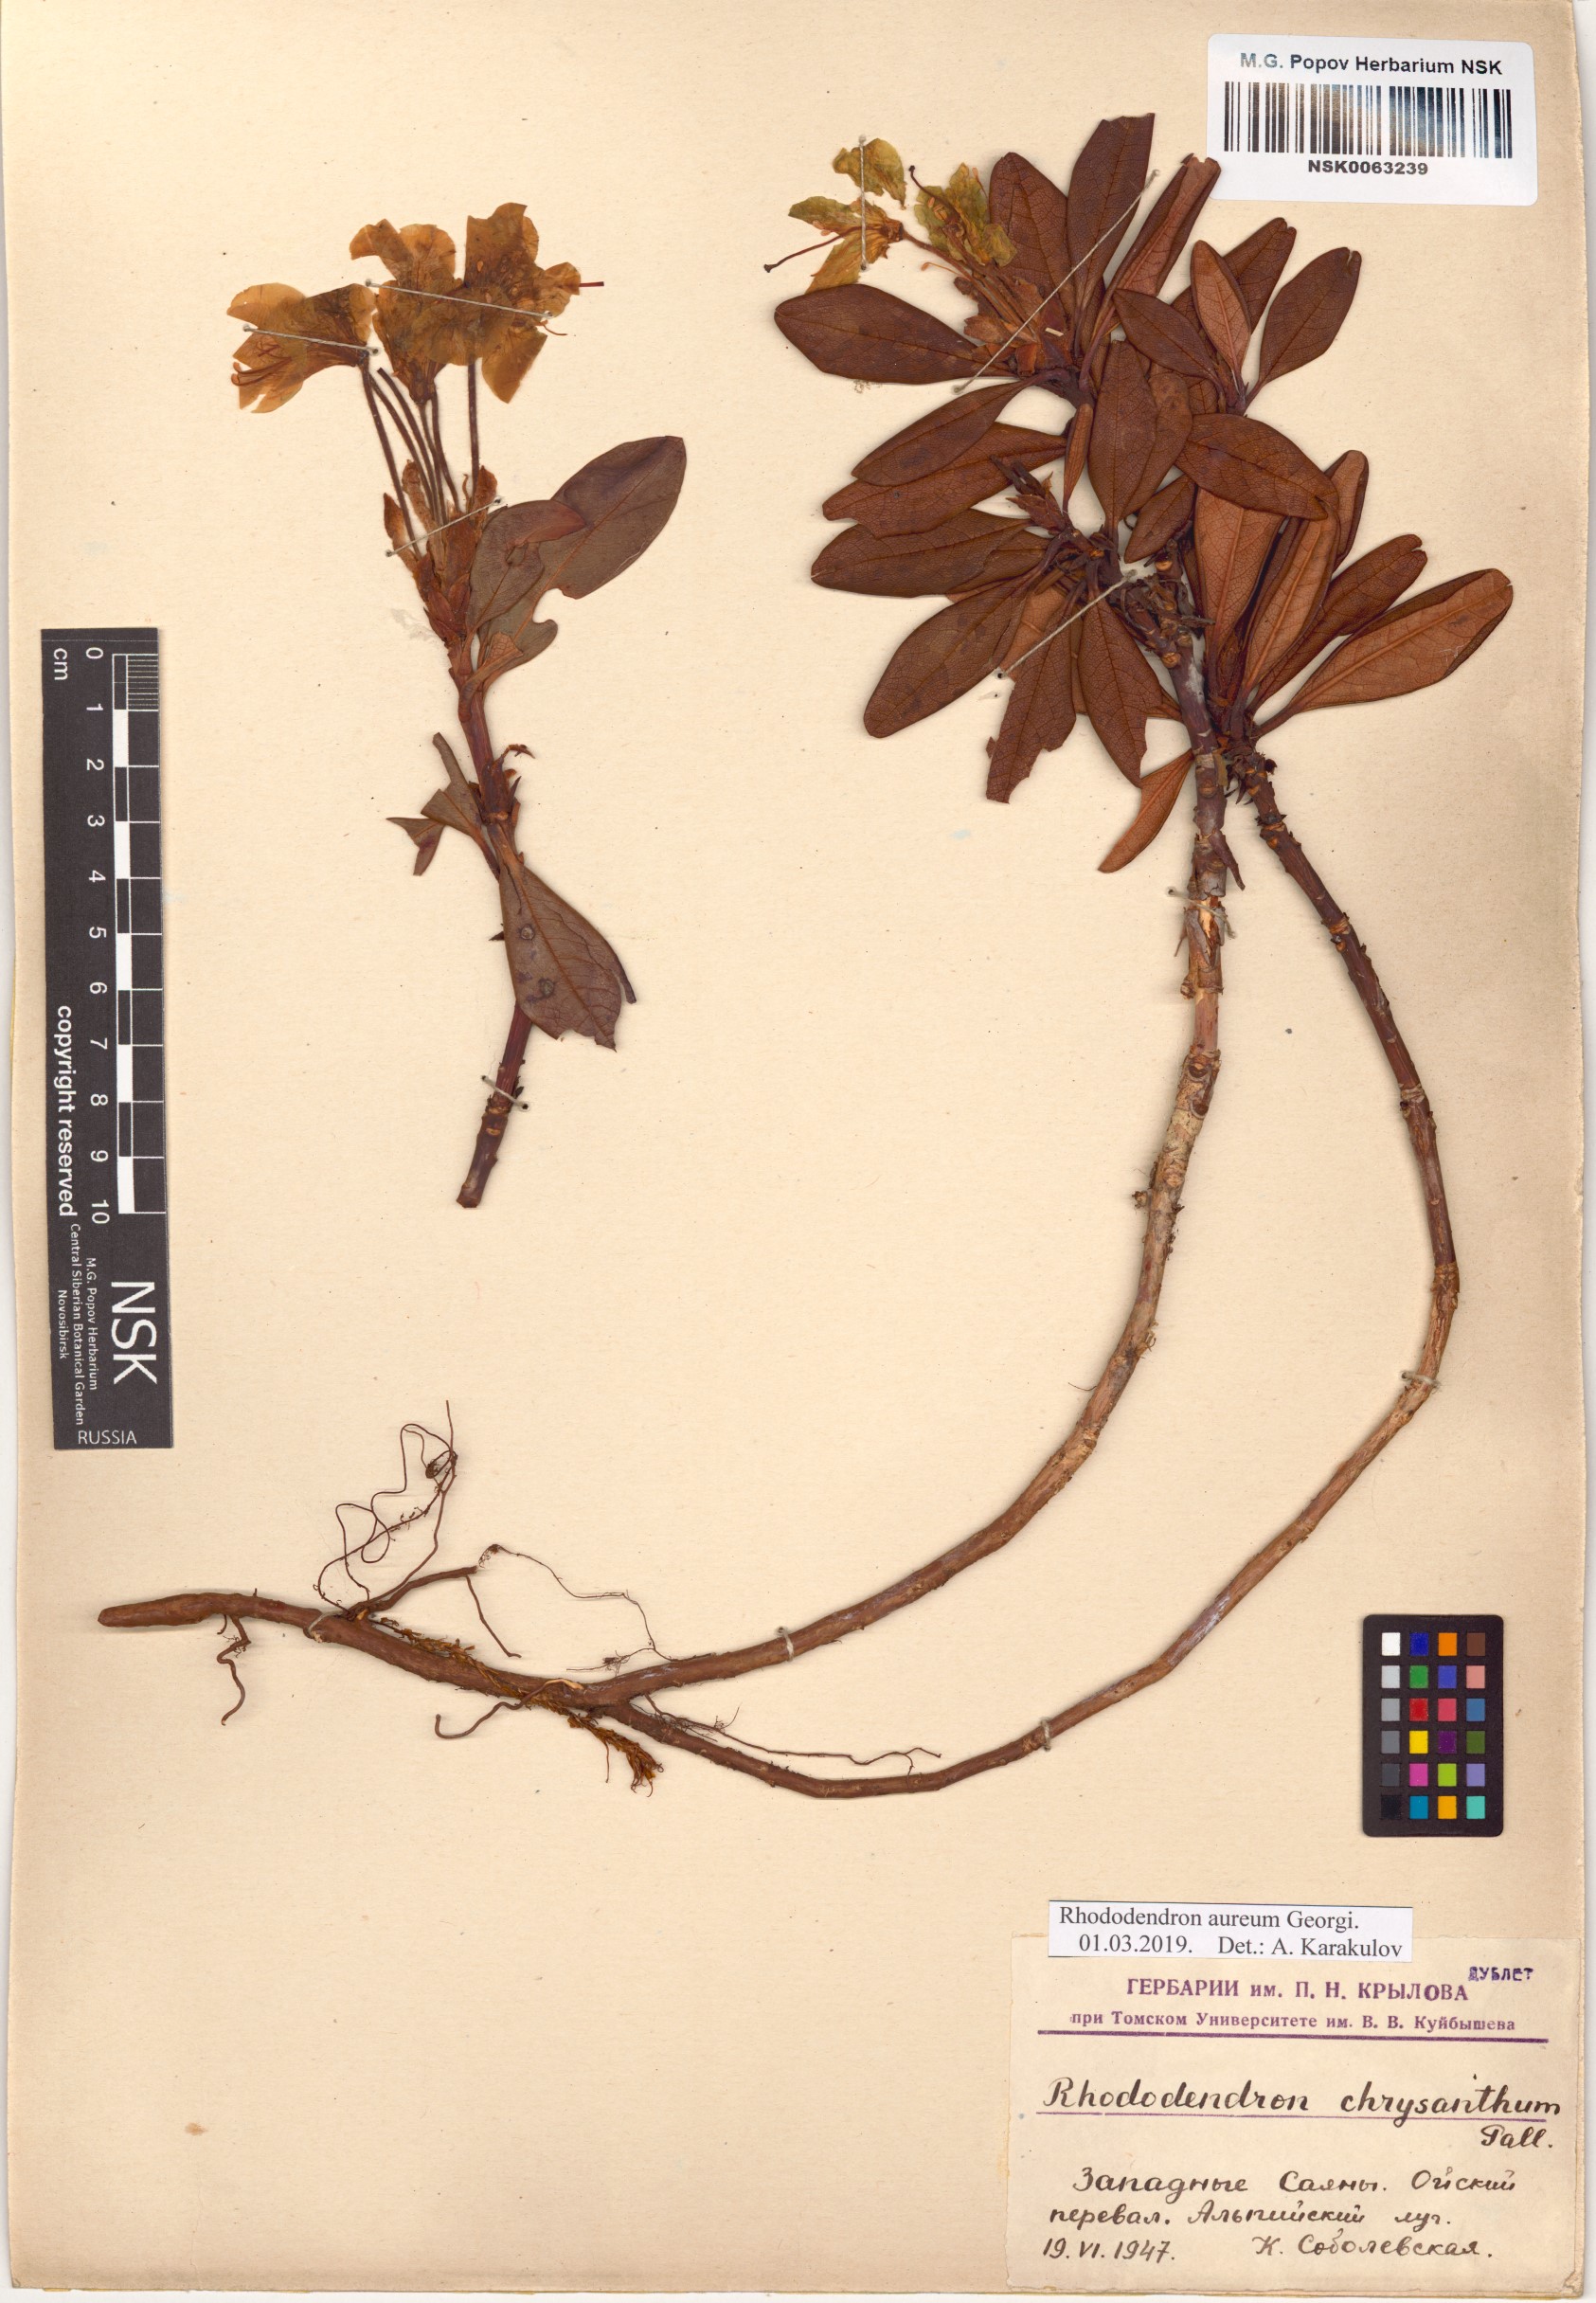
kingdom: Plantae
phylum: Tracheophyta
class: Magnoliopsida
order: Ericales
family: Ericaceae
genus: Rhododendron
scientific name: Rhododendron aureum
